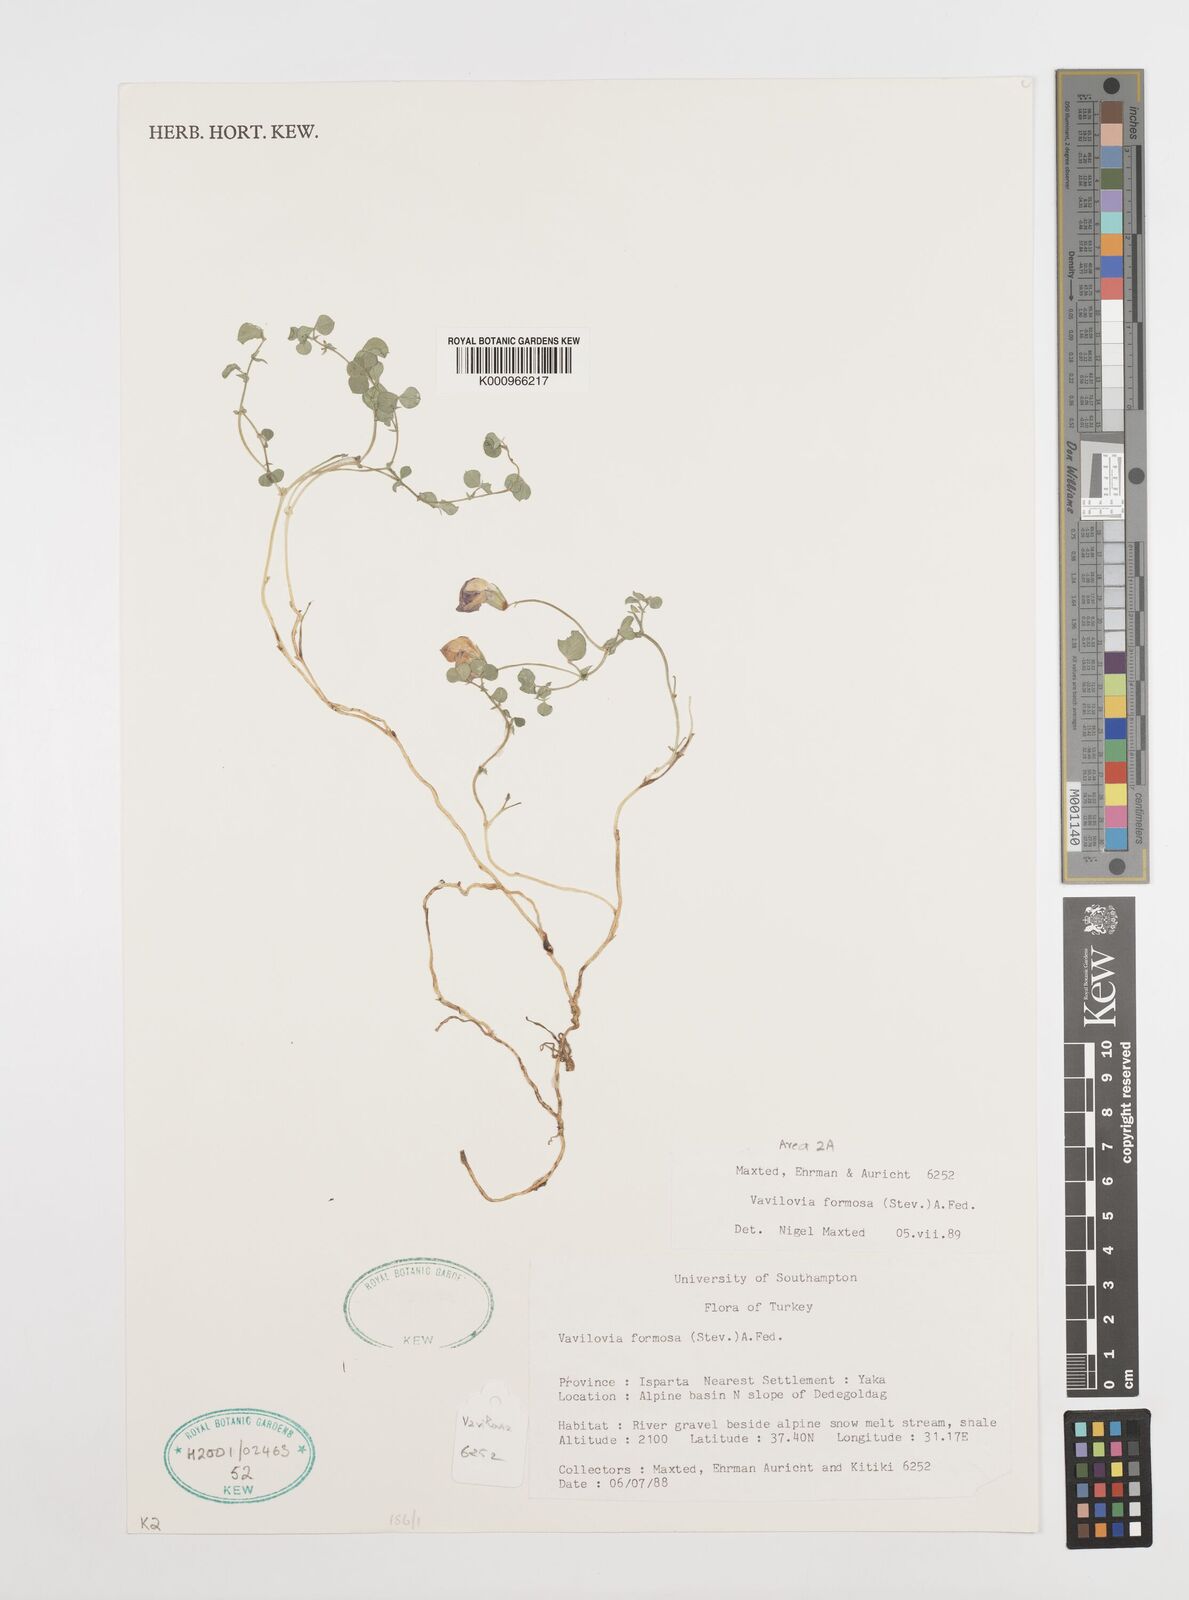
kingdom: Plantae
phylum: Tracheophyta
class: Magnoliopsida
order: Fabales
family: Fabaceae
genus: Lathyrus
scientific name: Lathyrus formosus
